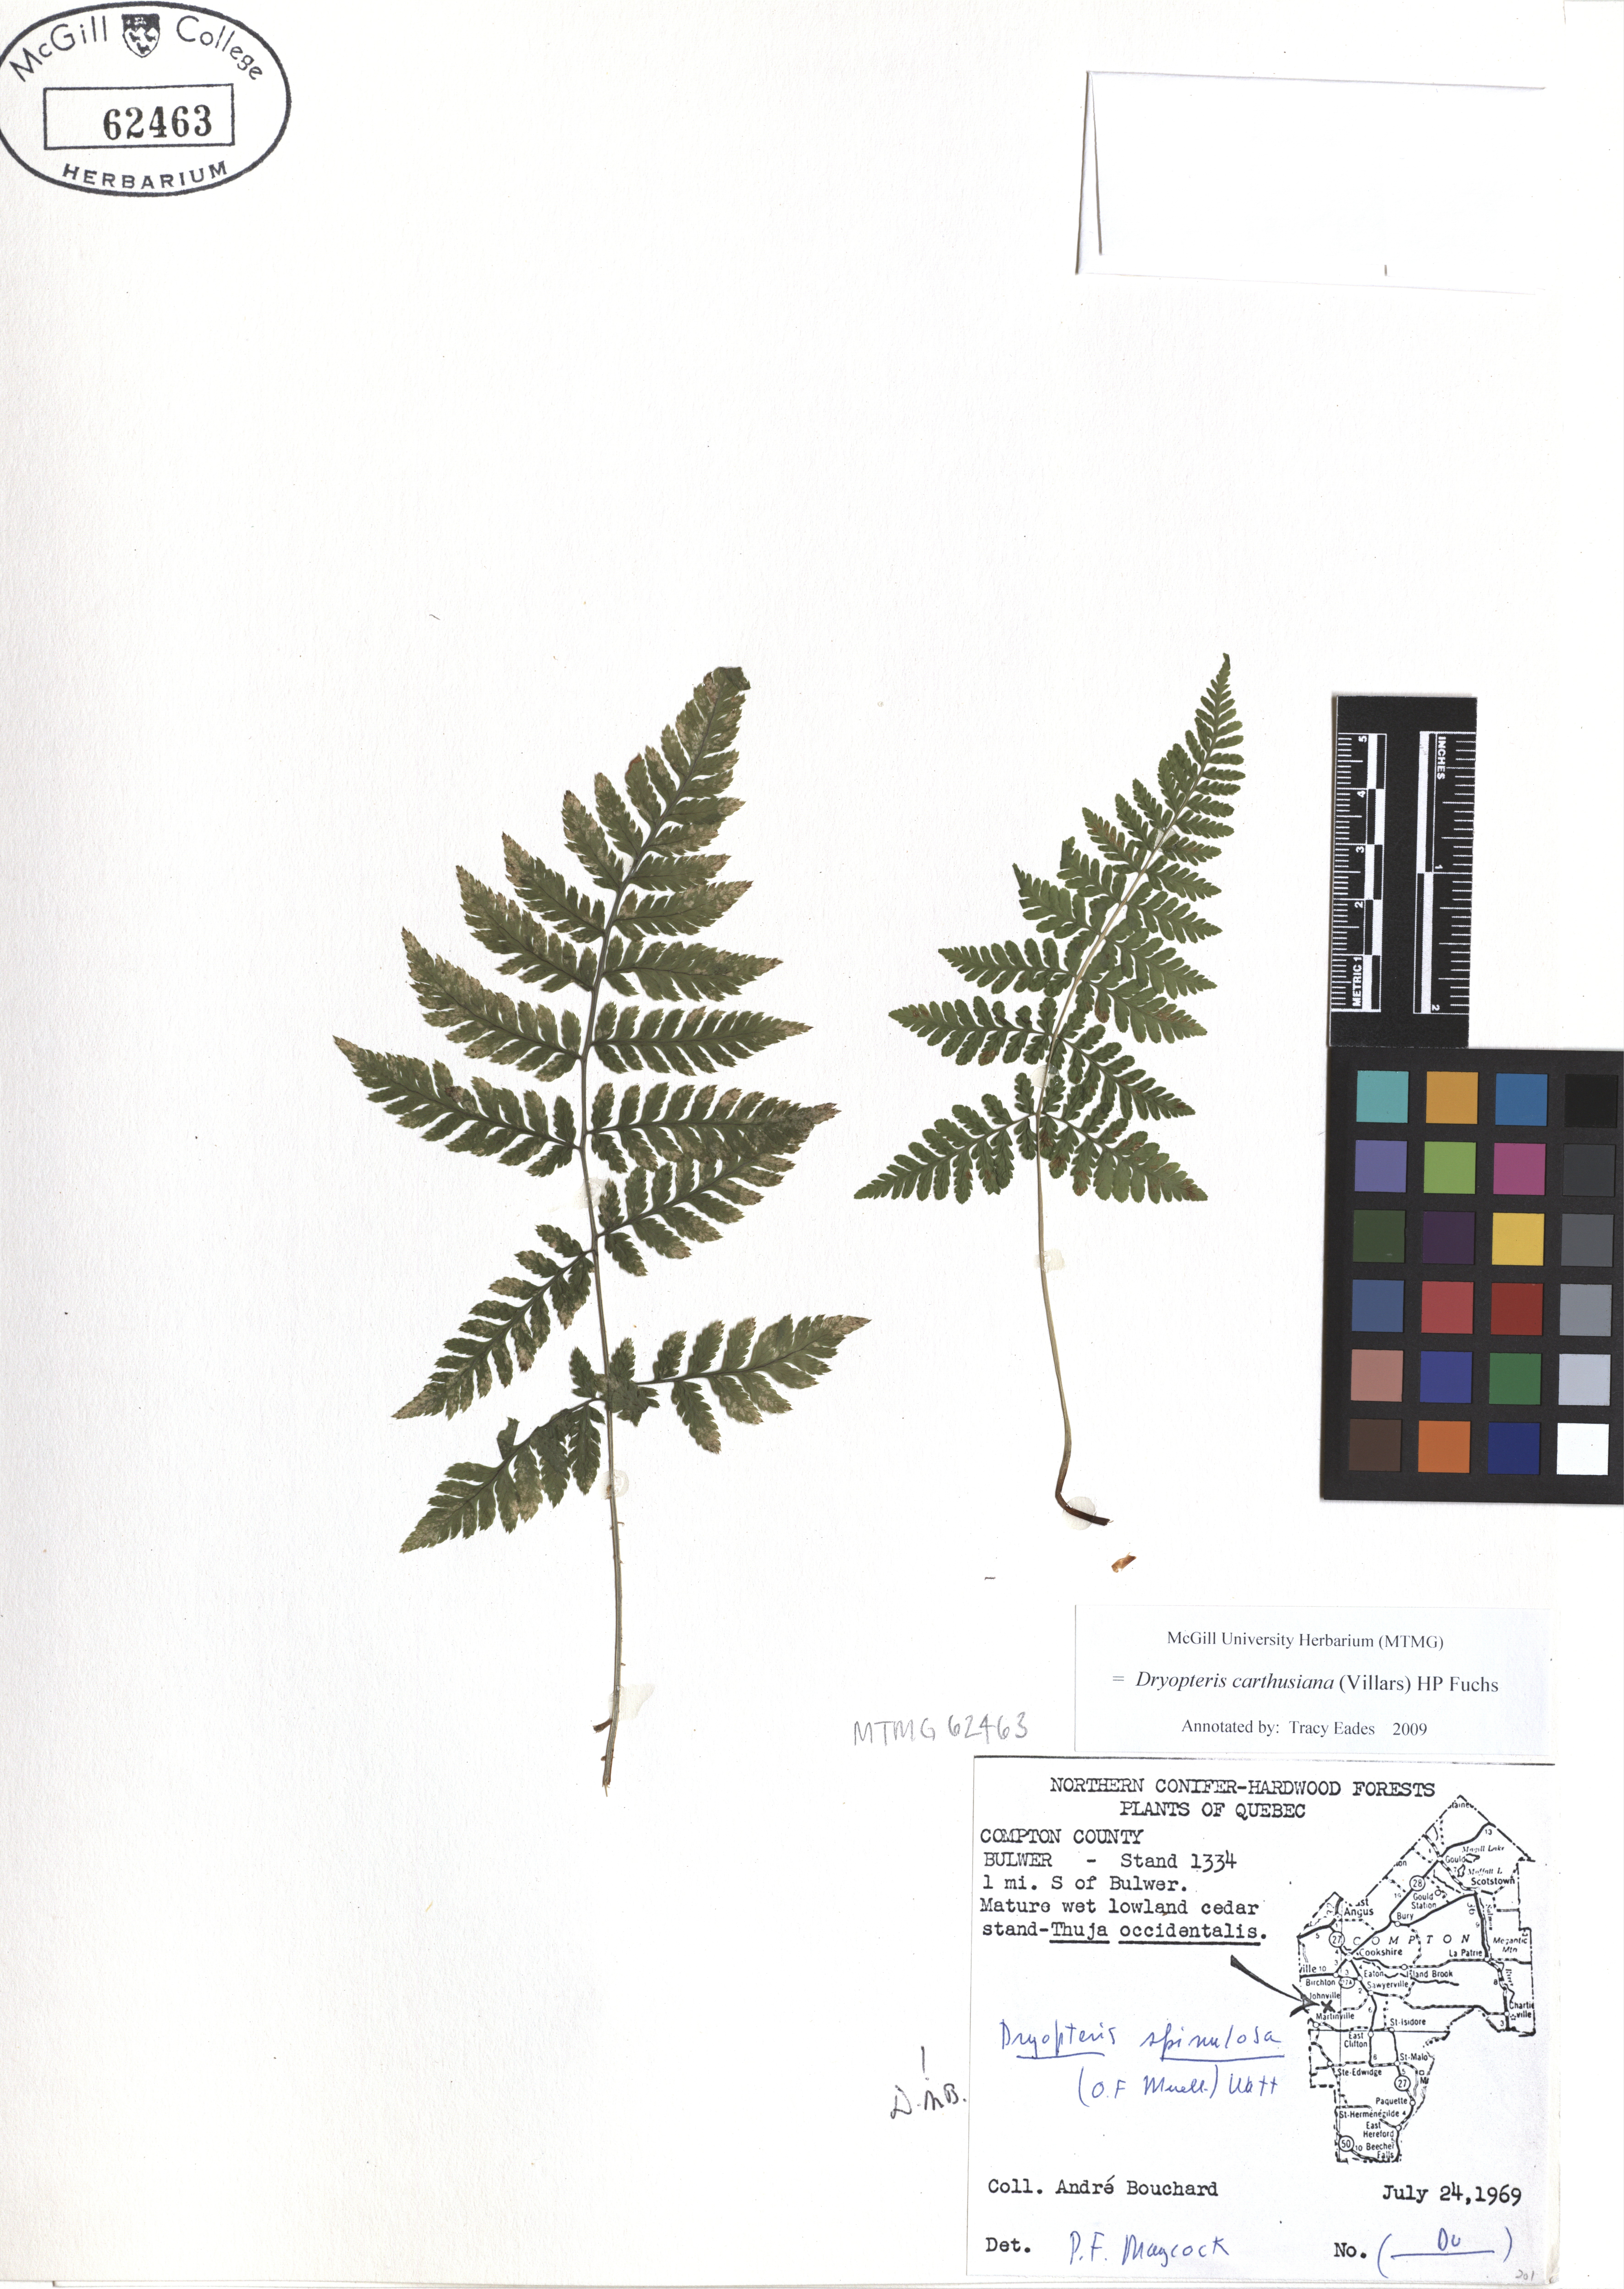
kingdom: Plantae
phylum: Tracheophyta
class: Polypodiopsida
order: Polypodiales
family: Dryopteridaceae
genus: Dryopteris
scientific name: Dryopteris carthusiana
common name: Narrow buckler-fern
